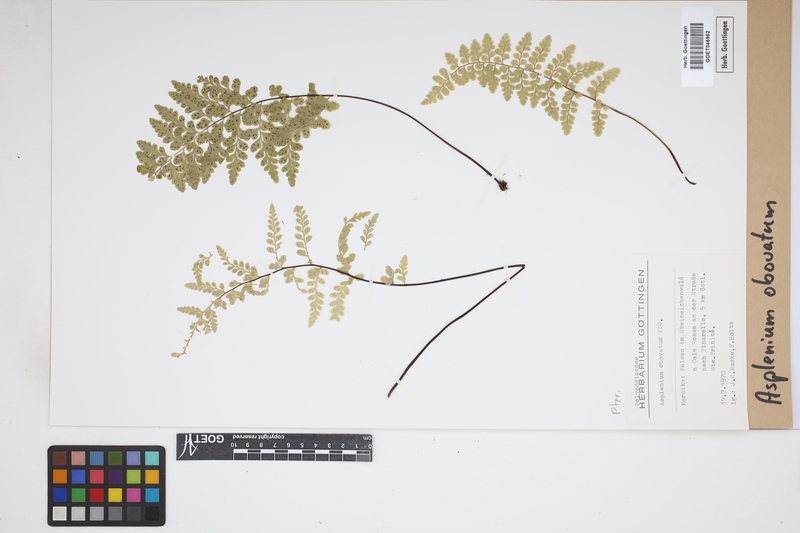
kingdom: Plantae
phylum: Tracheophyta
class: Polypodiopsida
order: Polypodiales
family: Aspleniaceae
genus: Asplenium
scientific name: Asplenium obovatum
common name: Lanceolate spleenwort
